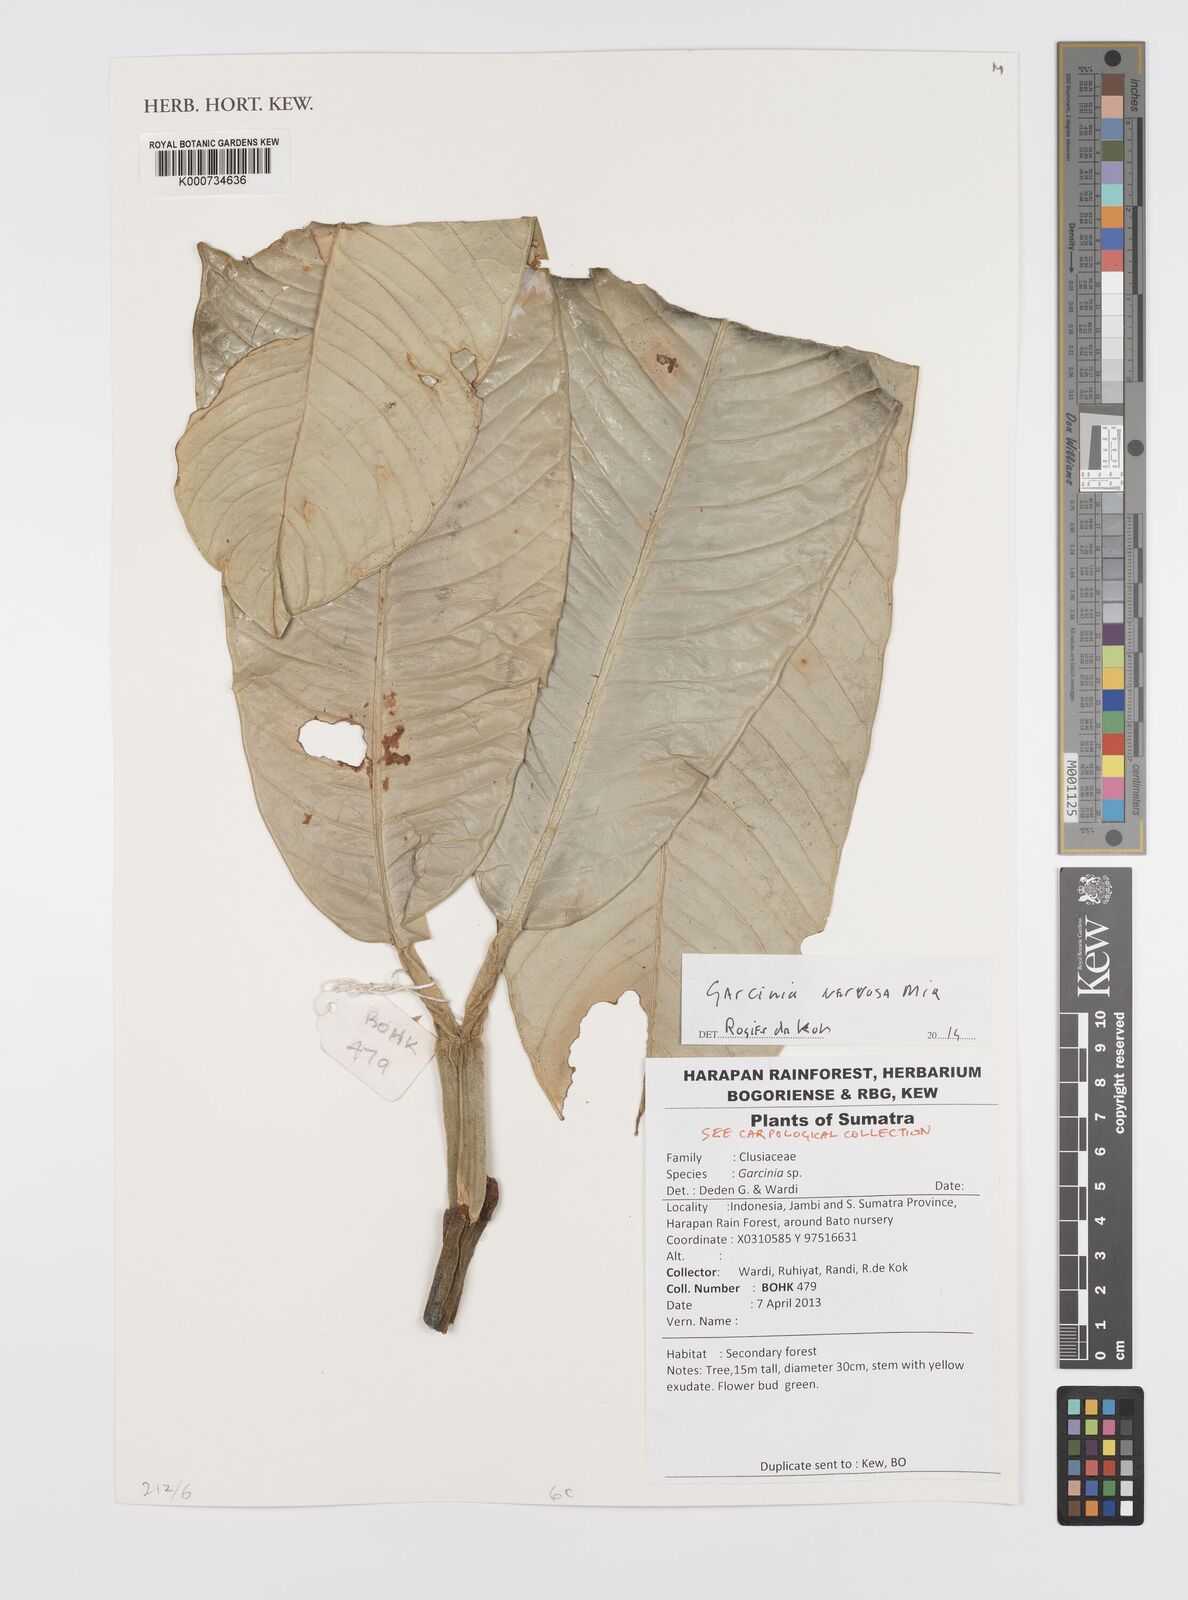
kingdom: Plantae
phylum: Tracheophyta
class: Magnoliopsida
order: Malpighiales
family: Clusiaceae
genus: Garcinia
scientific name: Garcinia nervosa
